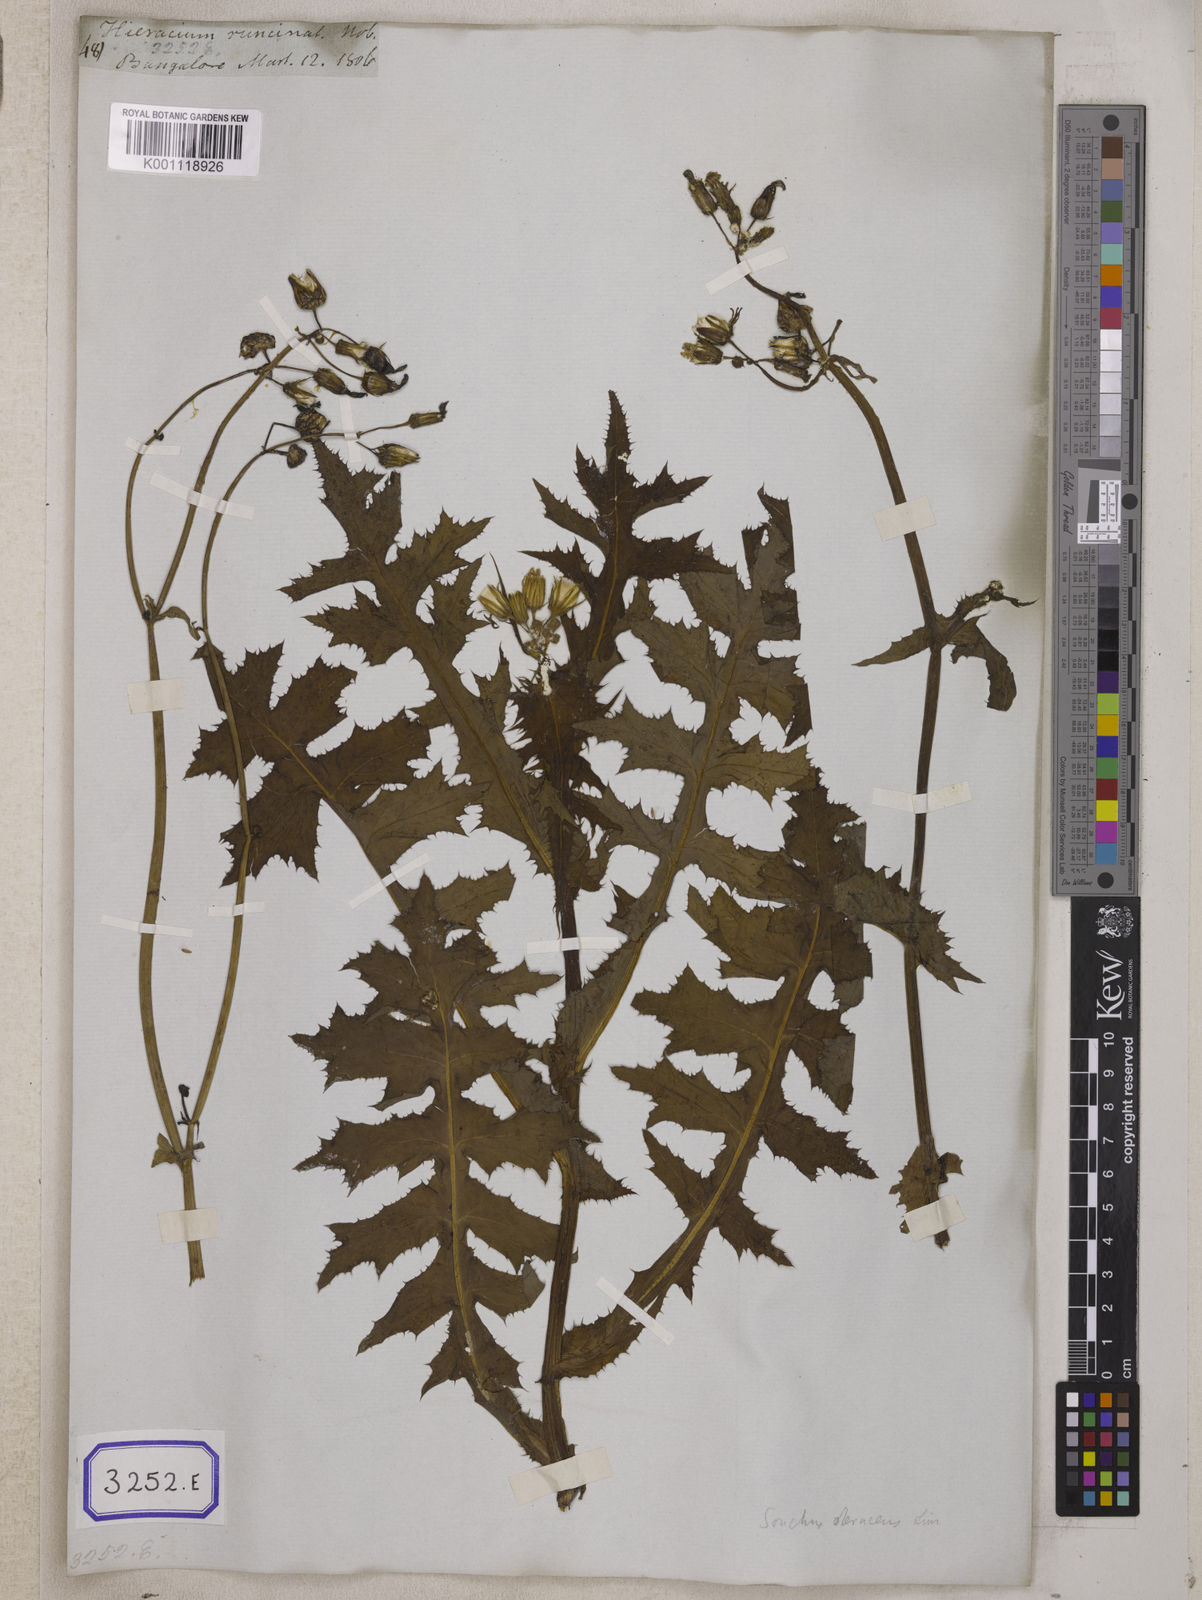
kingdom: Plantae
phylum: Tracheophyta
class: Magnoliopsida
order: Asterales
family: Asteraceae
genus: Sonchus
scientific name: Sonchus
